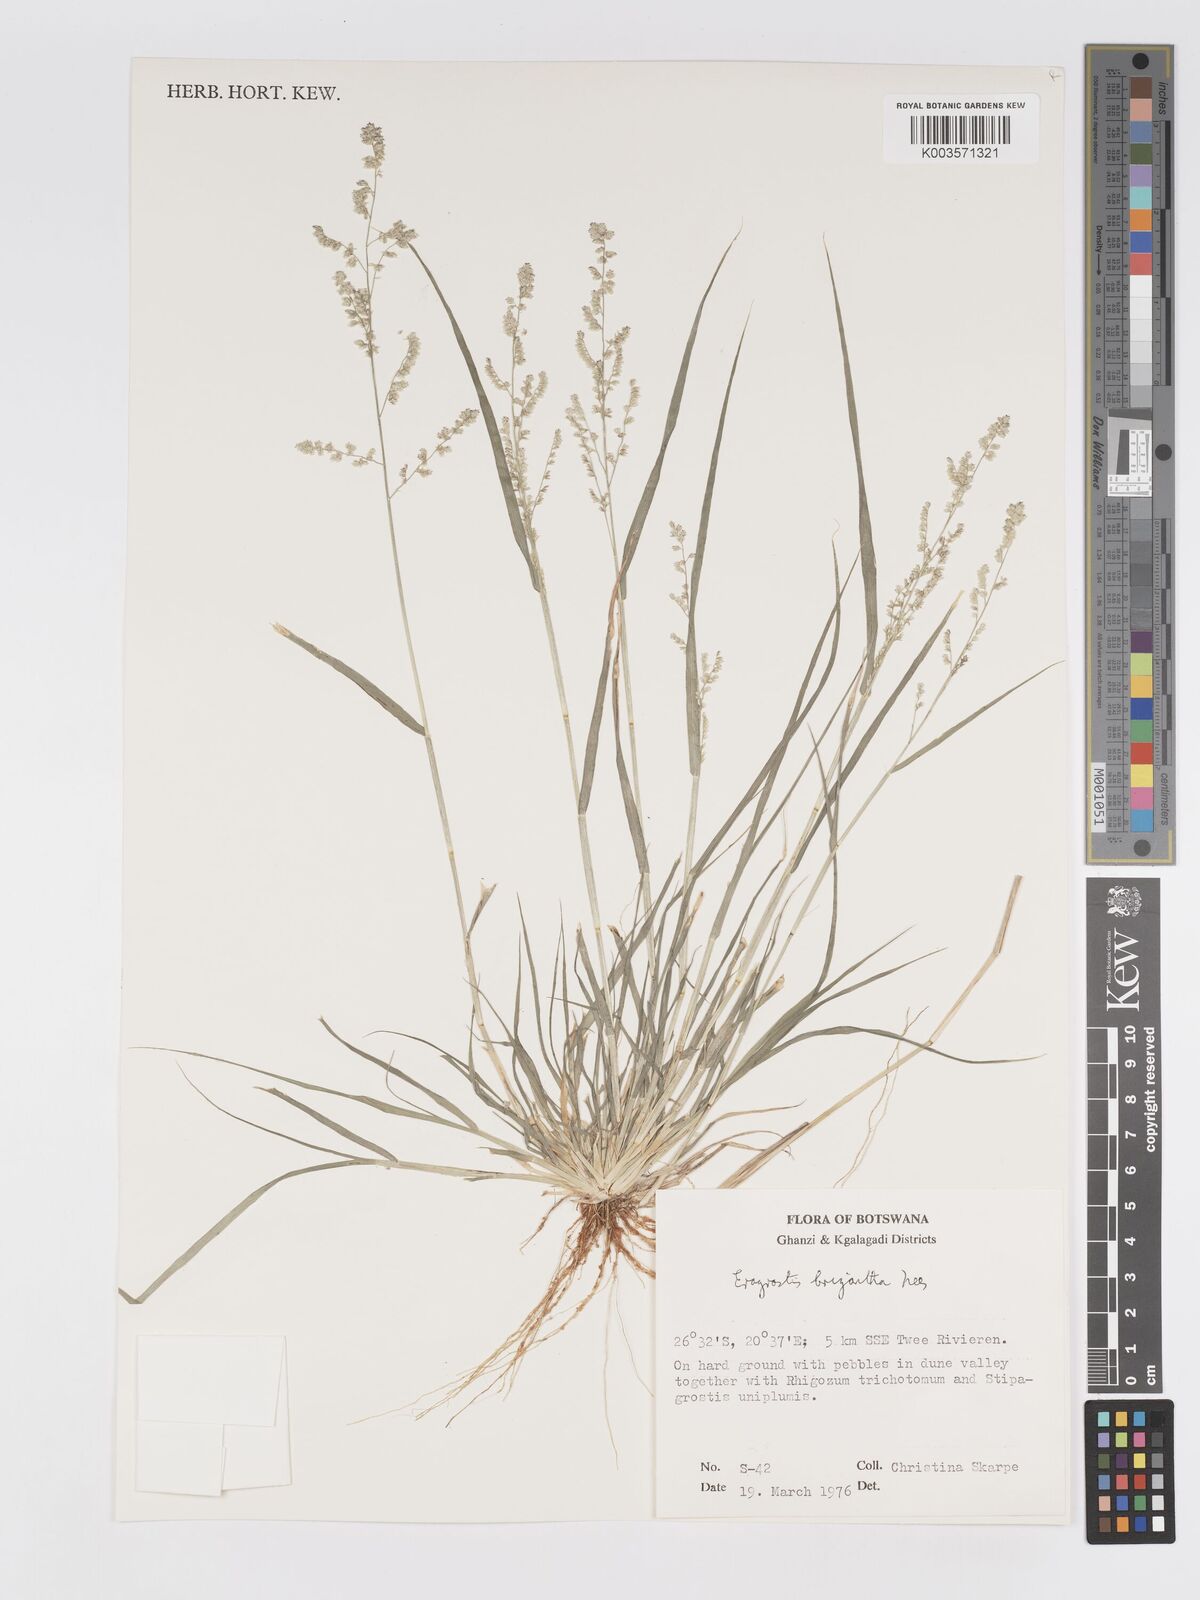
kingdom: Plantae
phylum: Tracheophyta
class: Liliopsida
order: Poales
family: Poaceae
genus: Eragrostis
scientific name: Eragrostis brizantha
